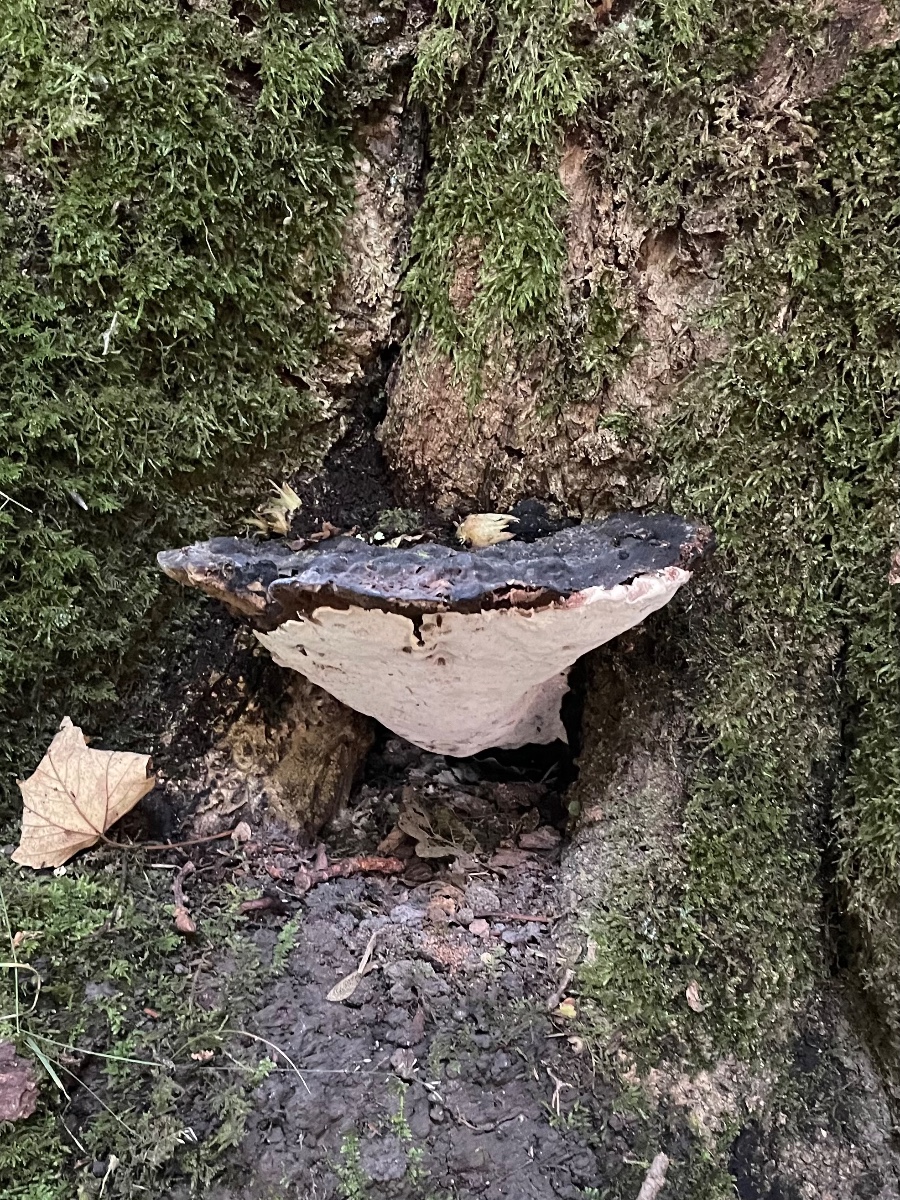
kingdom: Fungi
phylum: Basidiomycota
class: Agaricomycetes
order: Polyporales
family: Polyporaceae
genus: Vanderbylia
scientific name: Vanderbylia fraxinea
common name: stor kanelporesvamp
